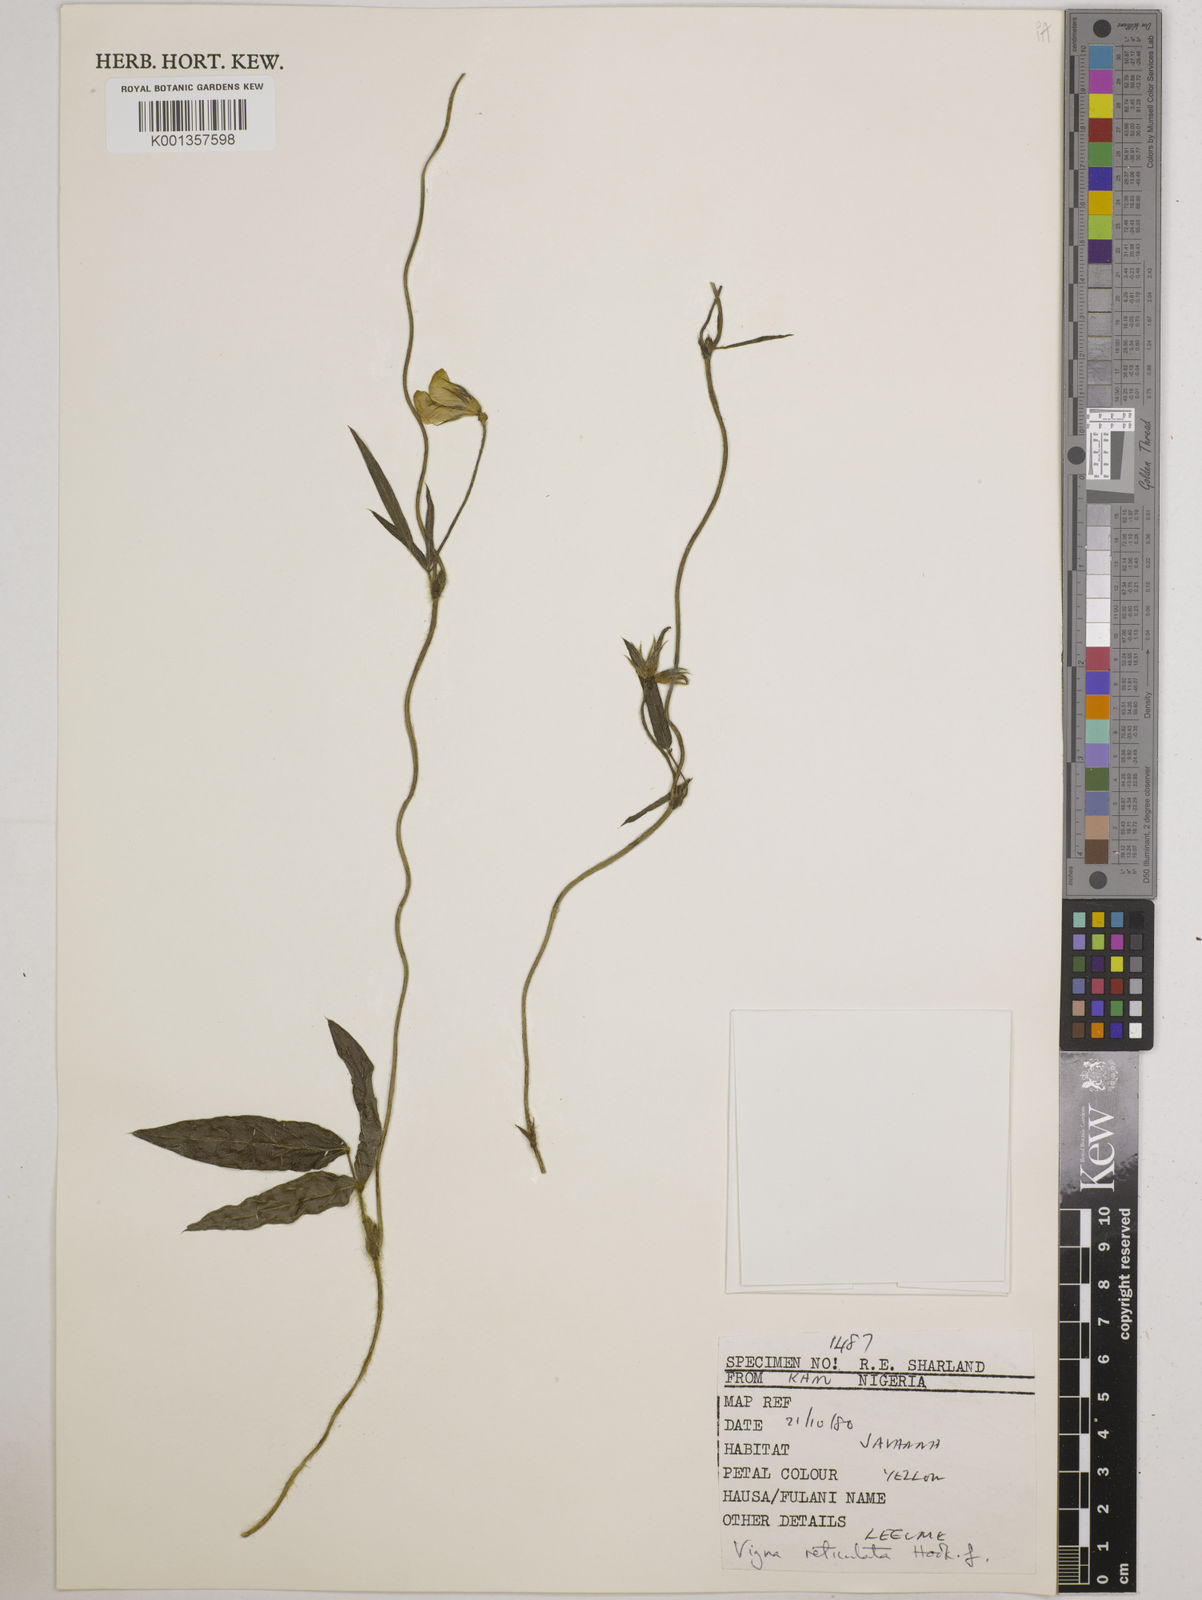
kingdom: Plantae
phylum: Tracheophyta
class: Magnoliopsida
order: Fabales
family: Fabaceae
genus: Vigna
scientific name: Vigna reticulata
